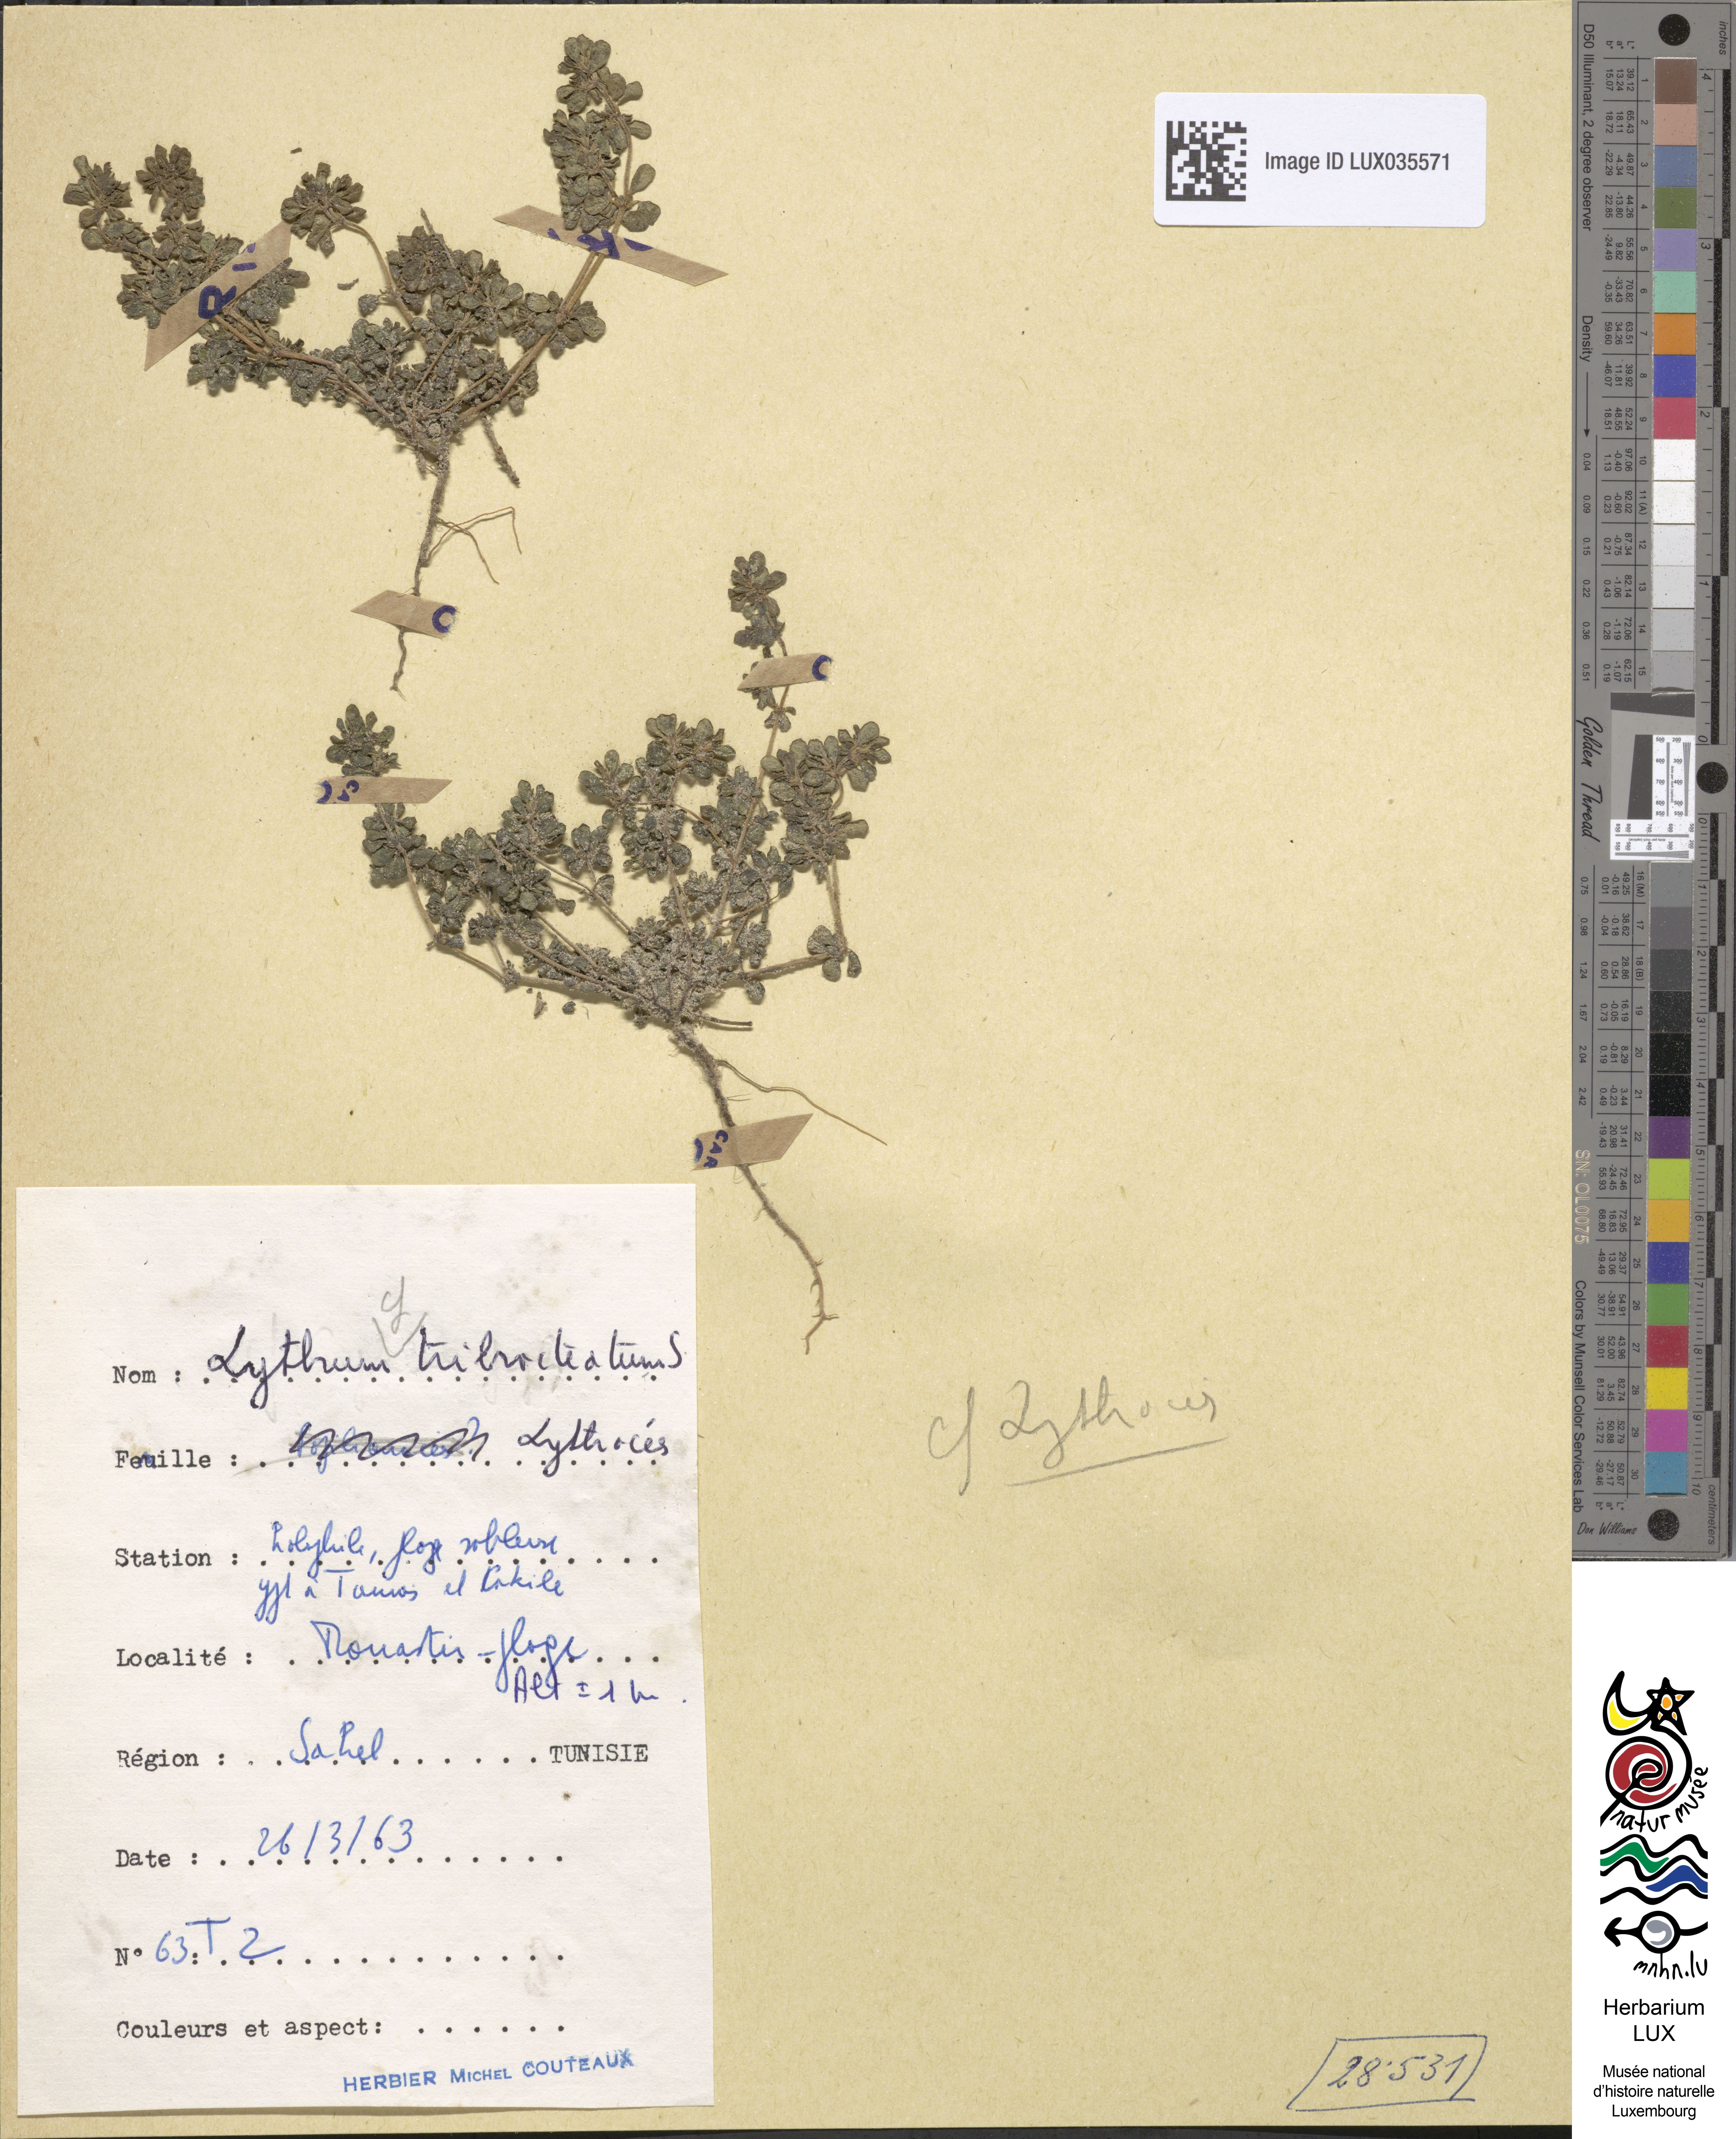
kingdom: Plantae
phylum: Tracheophyta
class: Magnoliopsida
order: Myrtales
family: Lythraceae
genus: Lythrum
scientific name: Lythrum tribracteatum
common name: Threebract loosestrife
